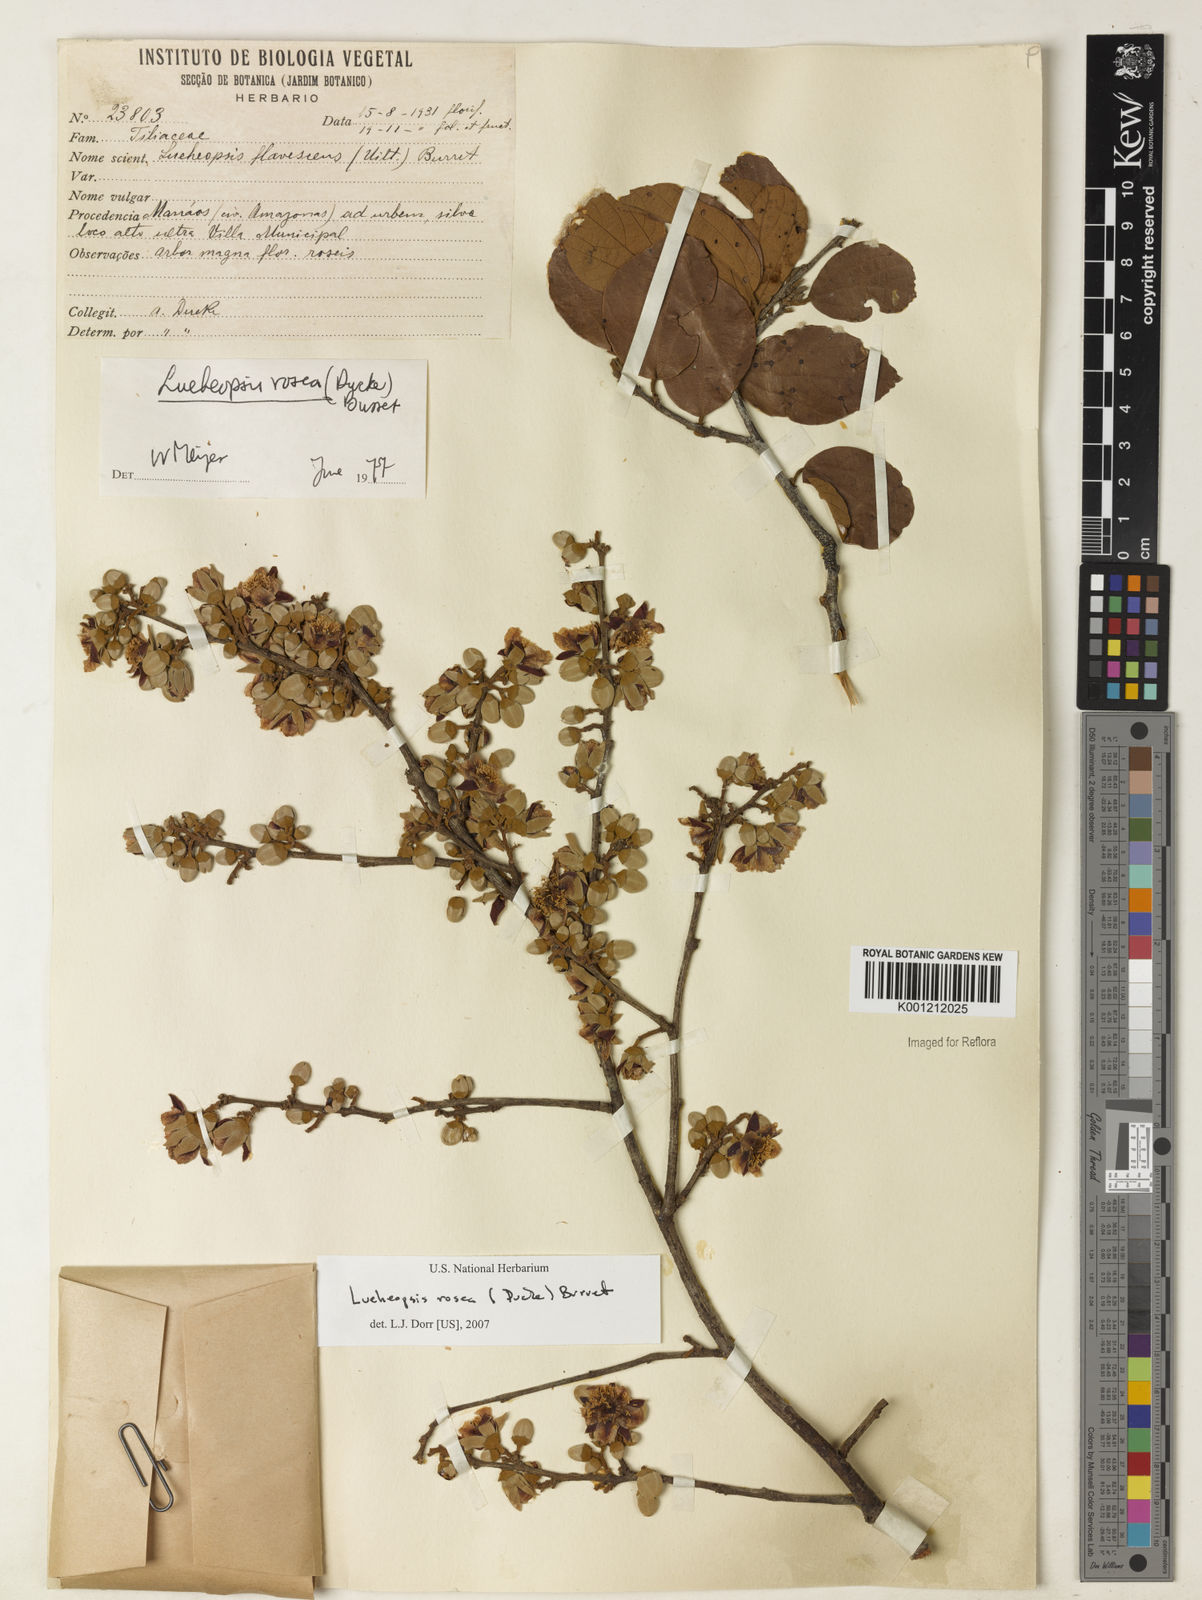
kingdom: Plantae
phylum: Tracheophyta
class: Magnoliopsida
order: Malvales
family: Malvaceae
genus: Lueheopsis
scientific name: Lueheopsis rosea
